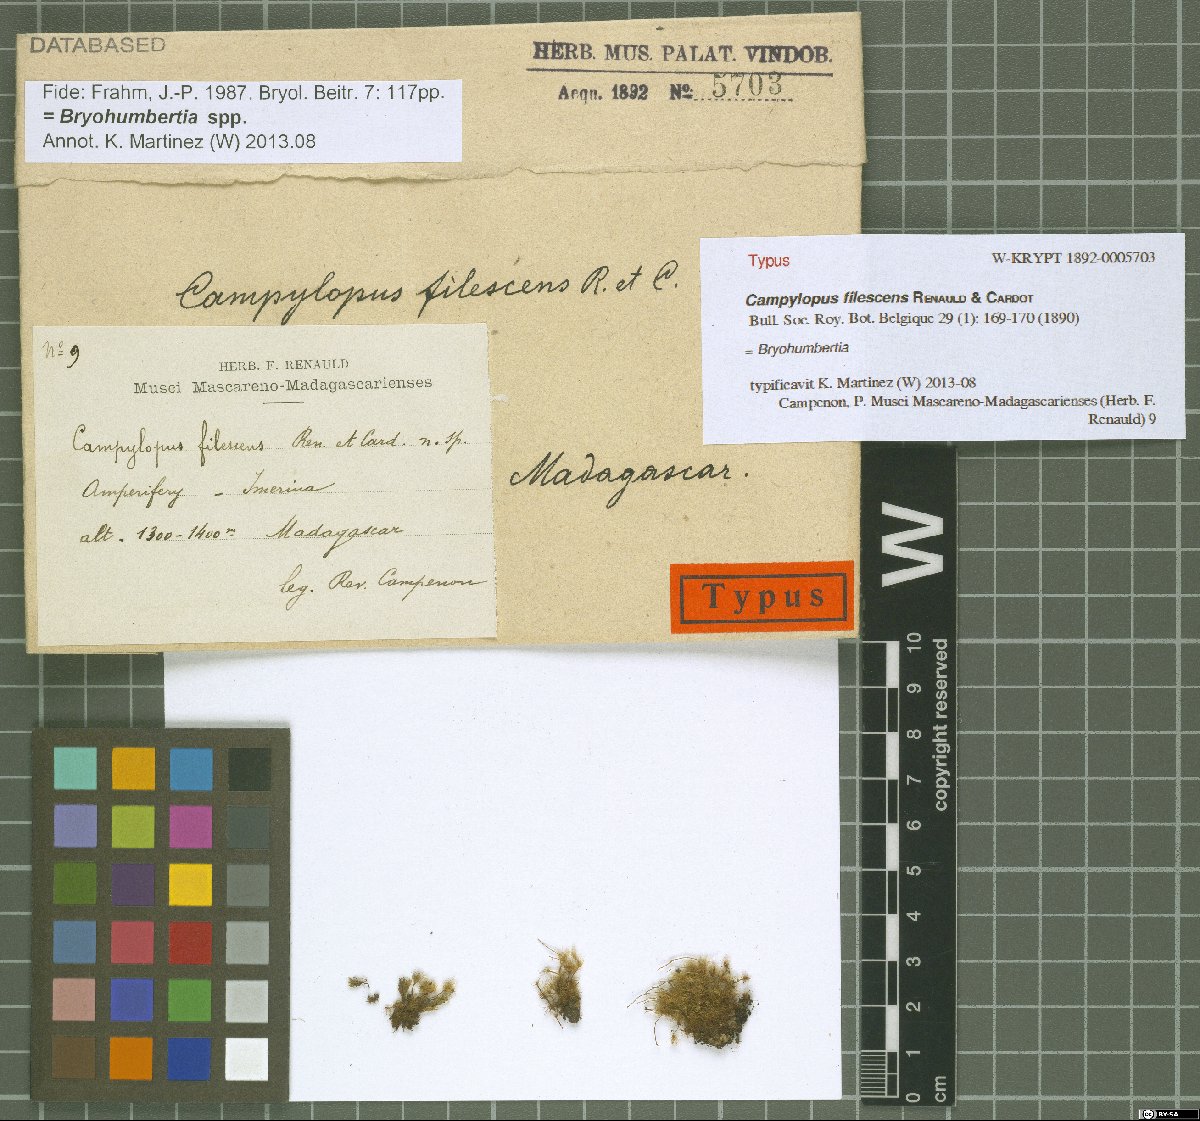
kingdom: Plantae
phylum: Bryophyta
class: Bryopsida
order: Dicranales
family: Leucobryaceae
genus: Campylopus
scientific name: Campylopus filescens
